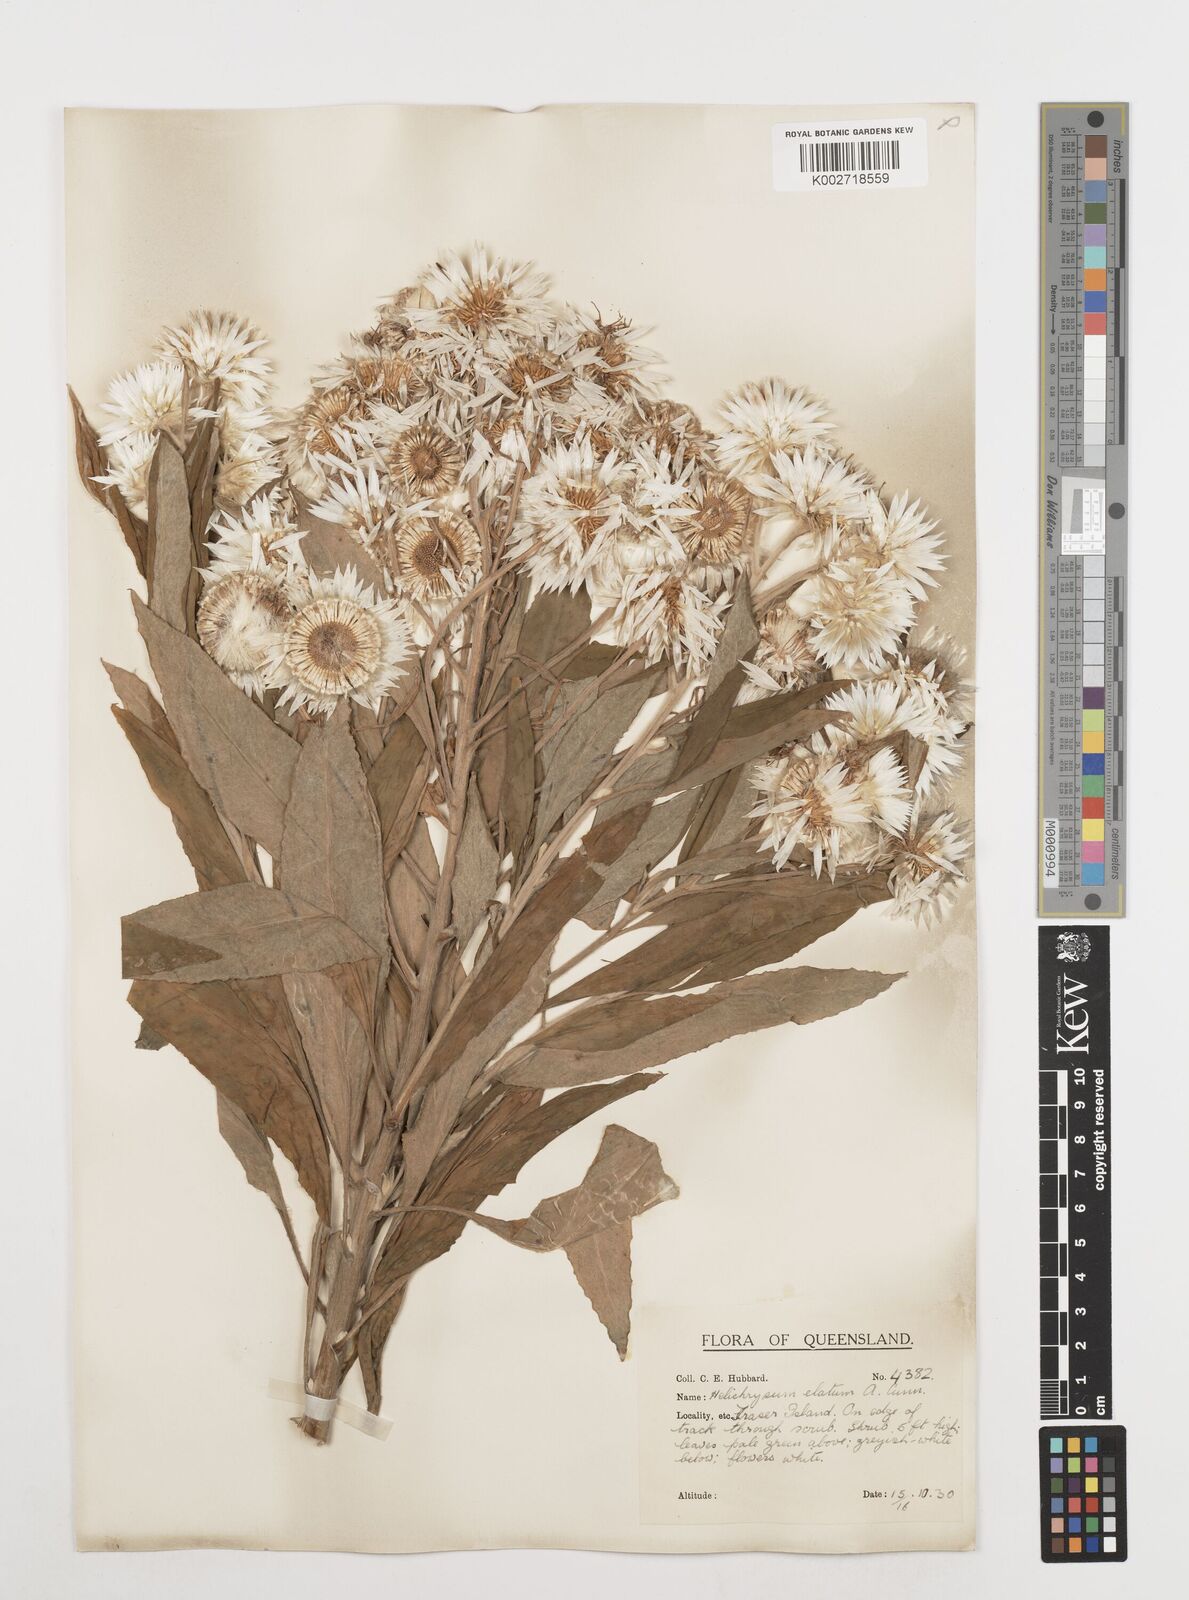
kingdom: Plantae
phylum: Tracheophyta
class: Magnoliopsida
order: Asterales
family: Asteraceae
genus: Leucozoma
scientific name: Leucozoma elatum
